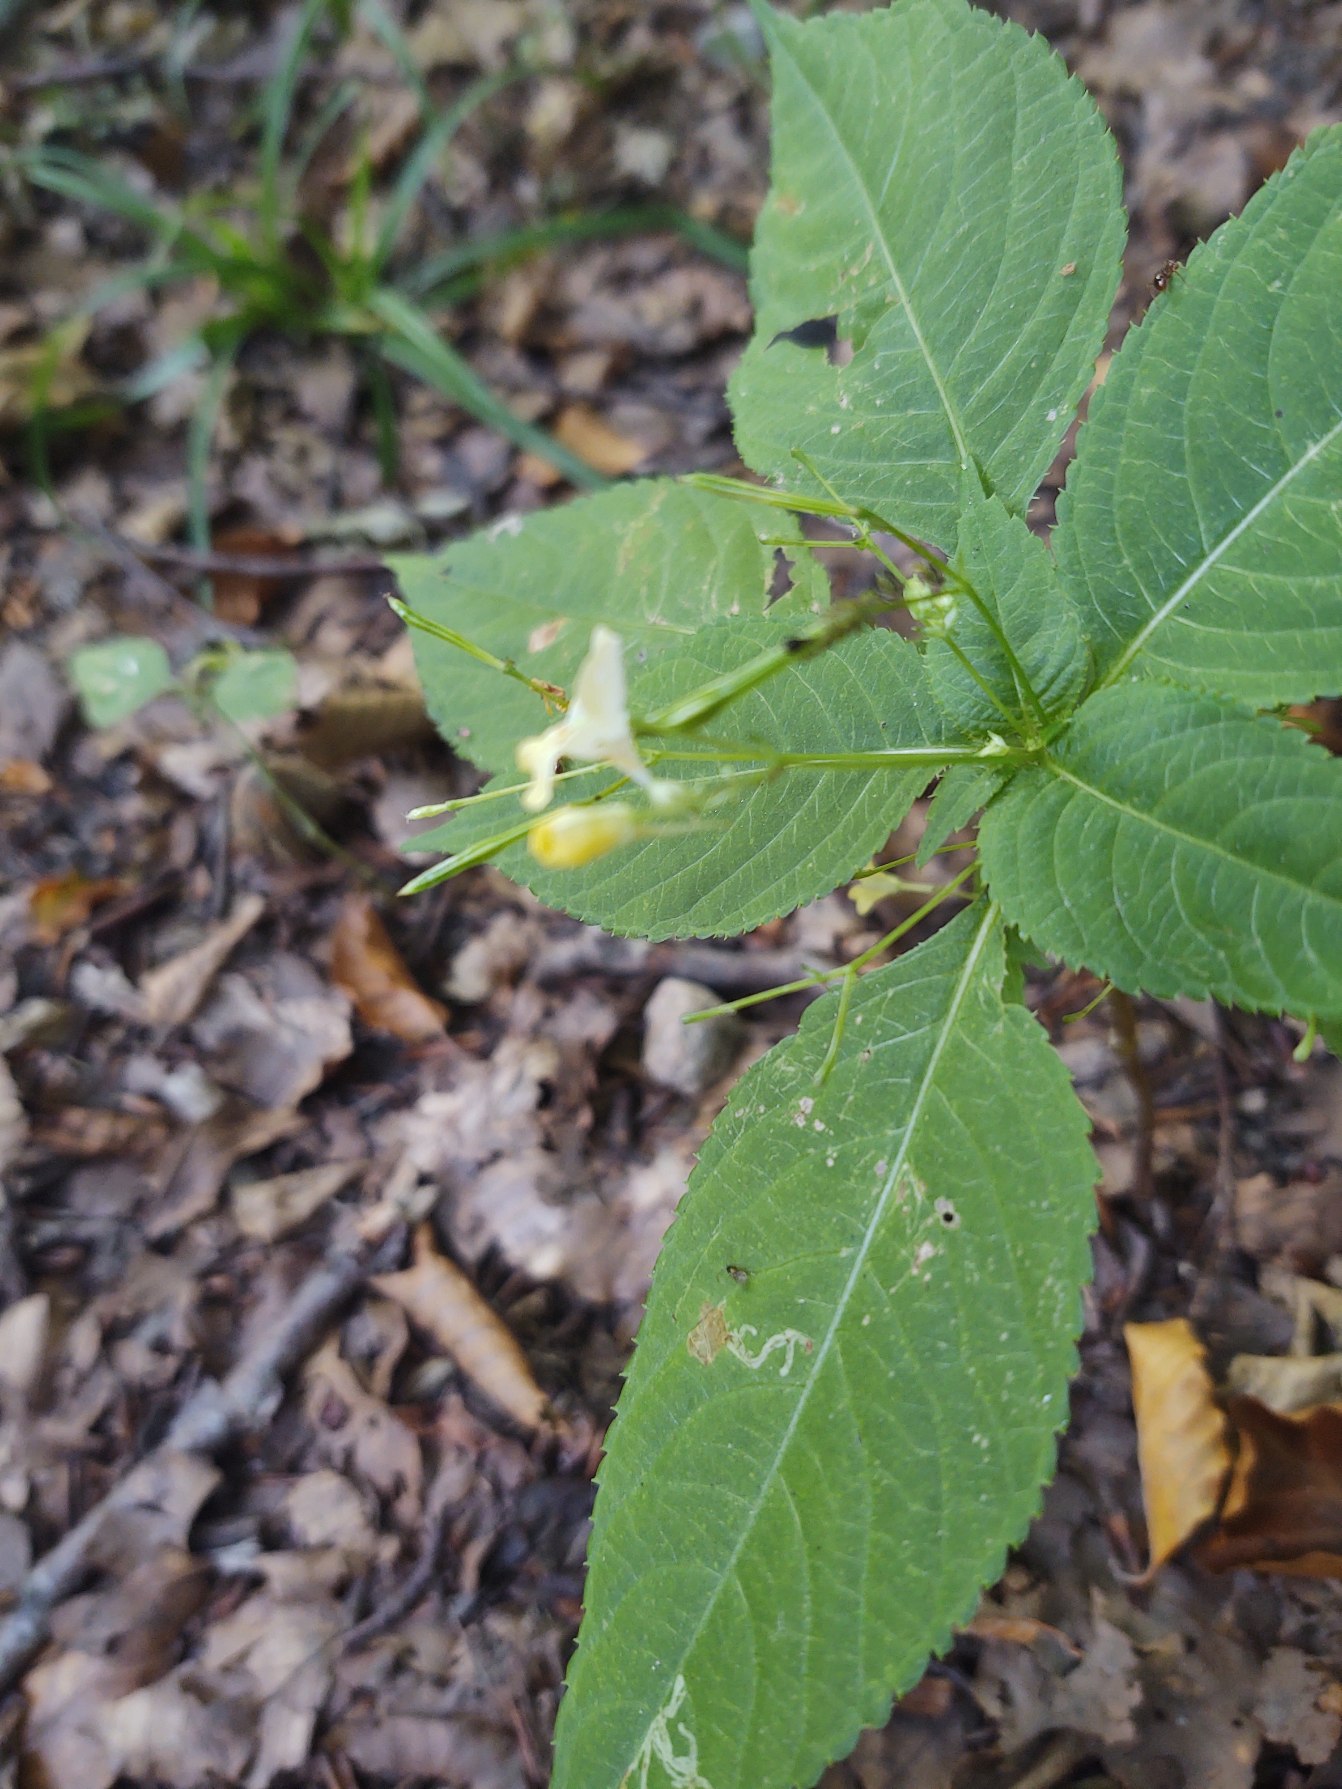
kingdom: Plantae
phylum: Tracheophyta
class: Magnoliopsida
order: Ericales
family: Balsaminaceae
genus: Impatiens
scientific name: Impatiens parviflora
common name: Småblomstret balsamin
